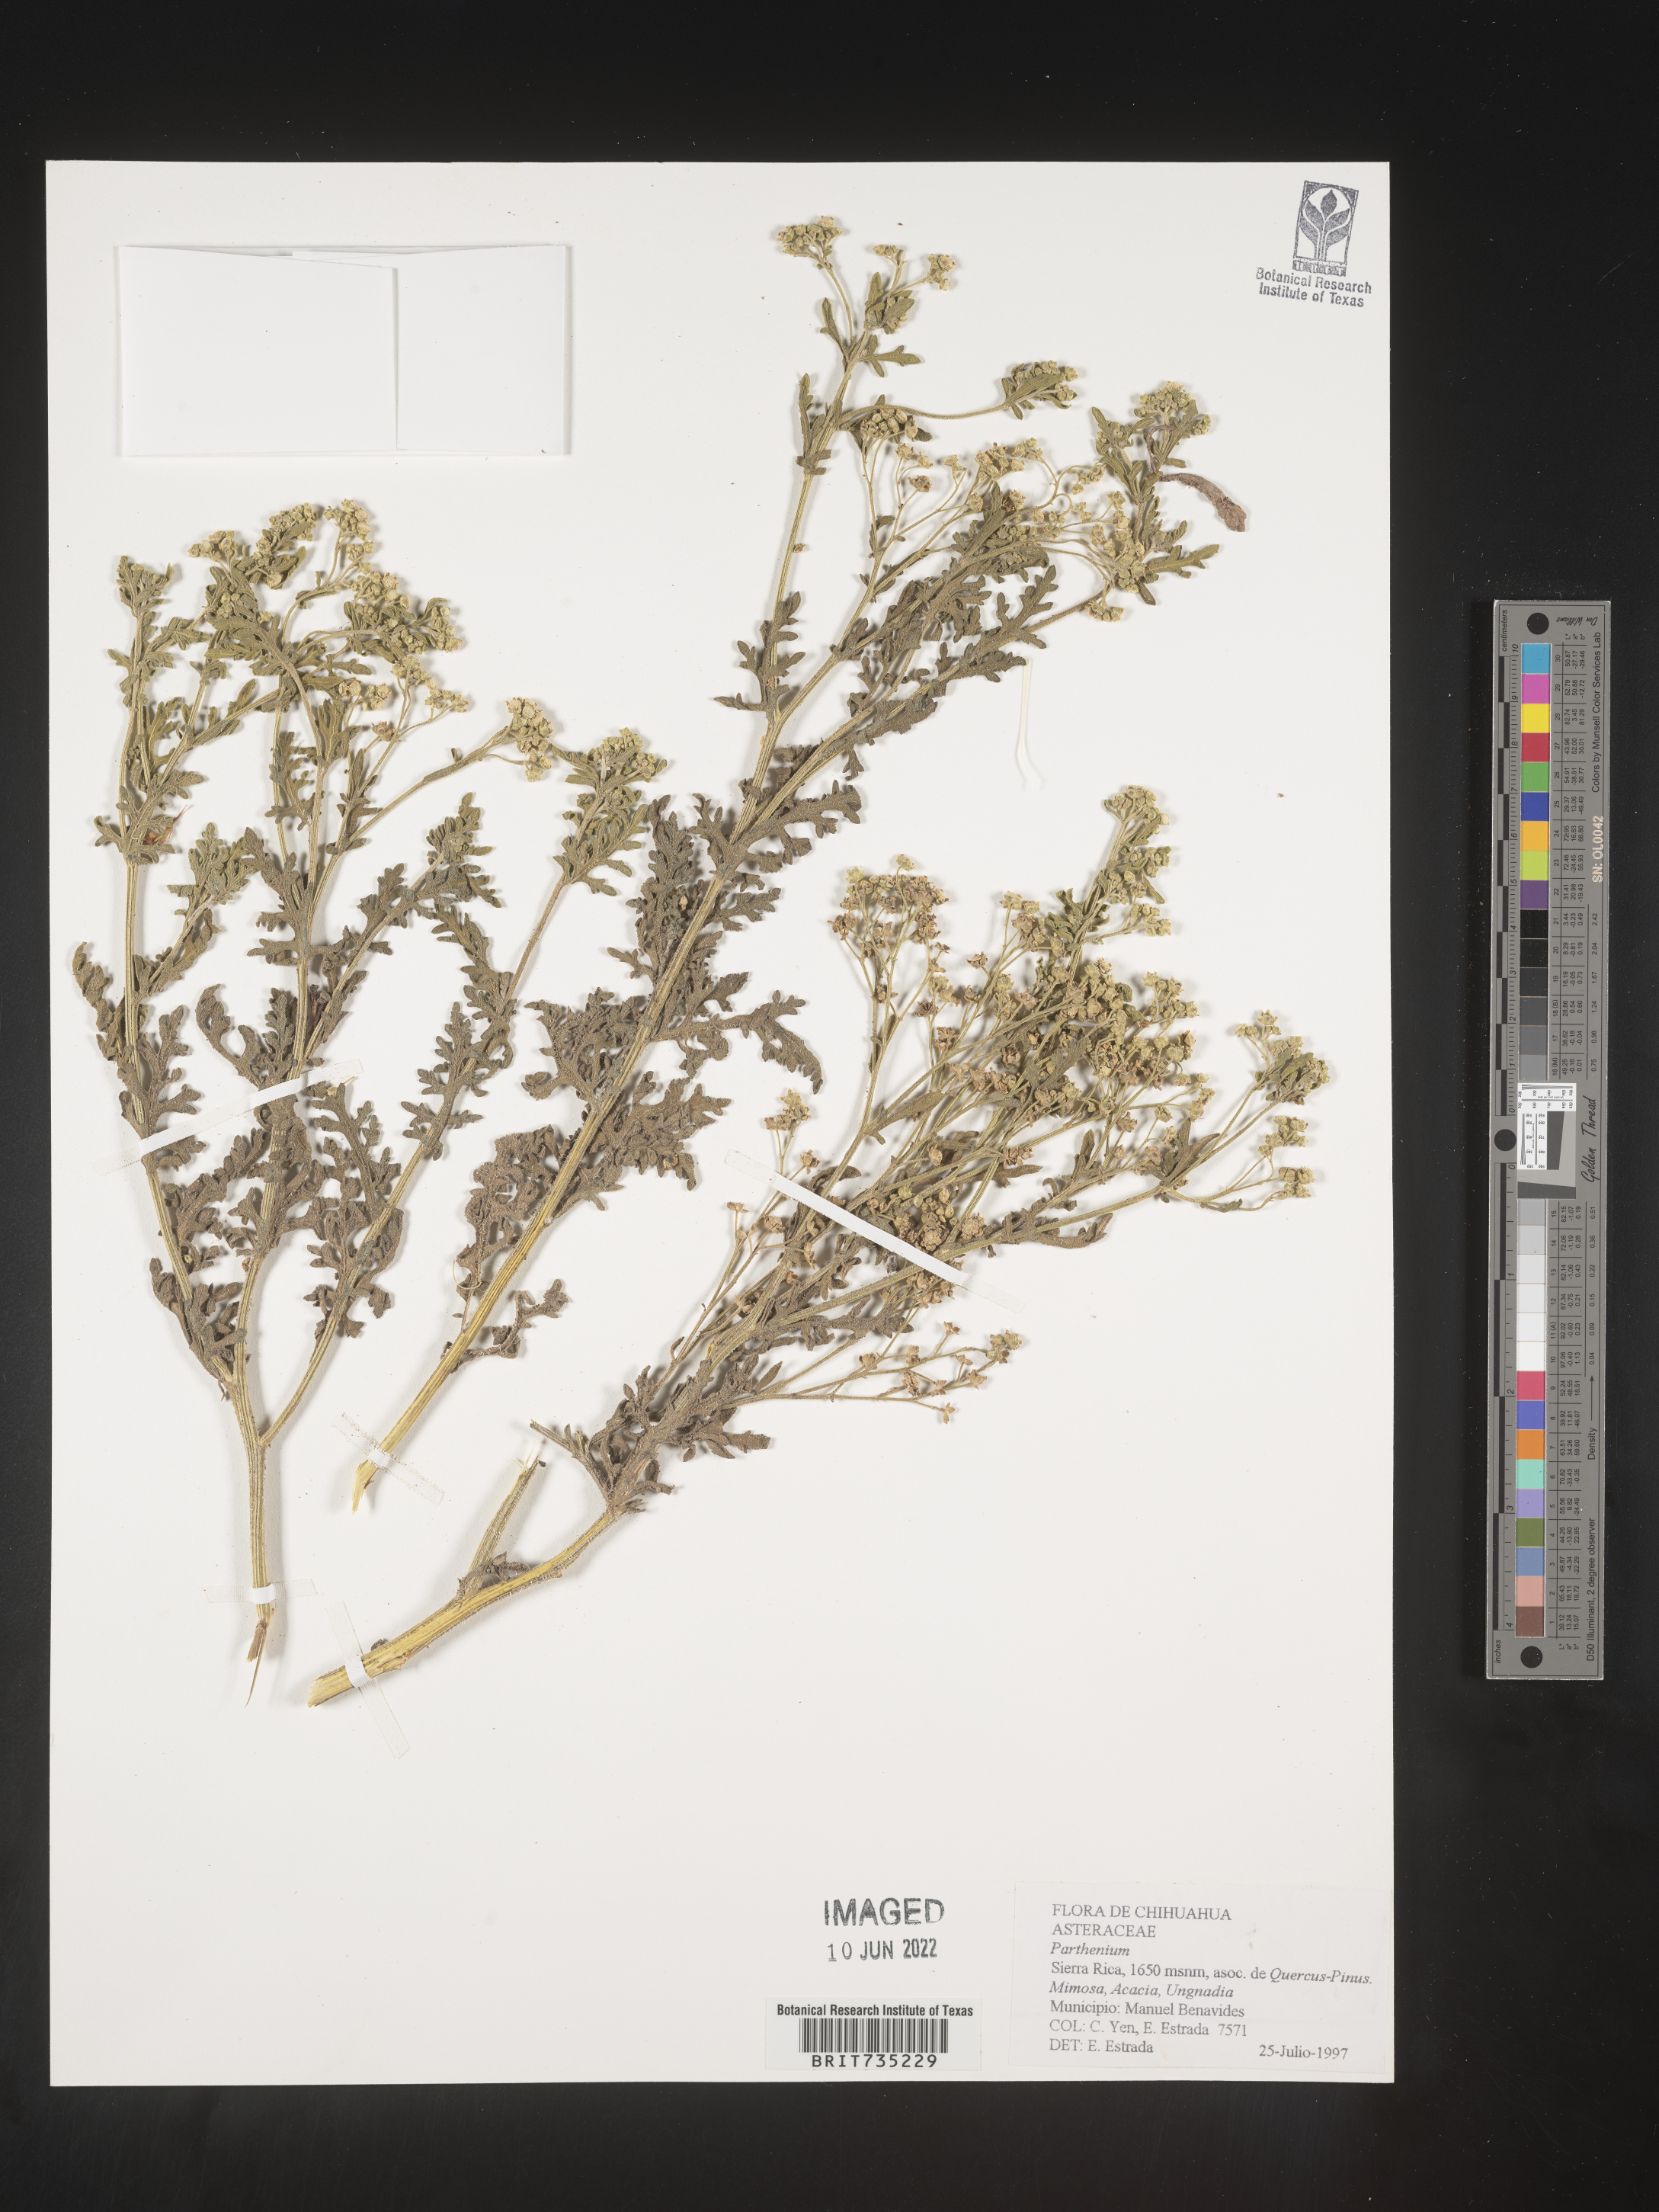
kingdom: Plantae
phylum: Tracheophyta
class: Magnoliopsida
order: Asterales
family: Asteraceae
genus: Parthenium
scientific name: Parthenium
